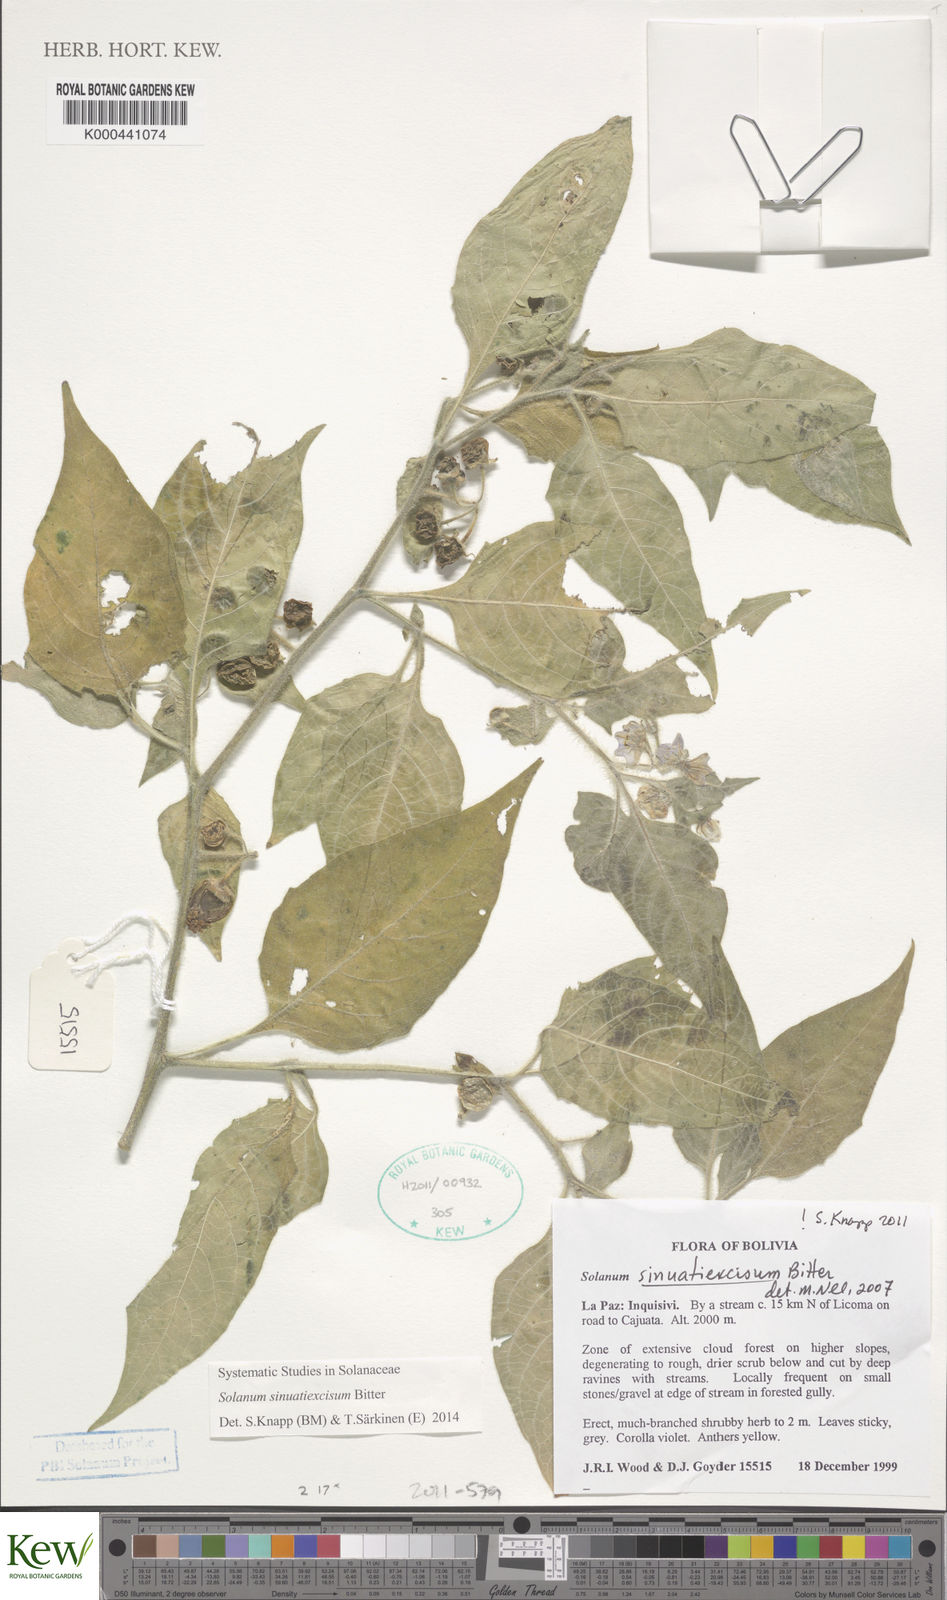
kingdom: Plantae
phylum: Tracheophyta
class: Magnoliopsida
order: Solanales
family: Solanaceae
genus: Solanum
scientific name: Solanum sinuatiexcisum
